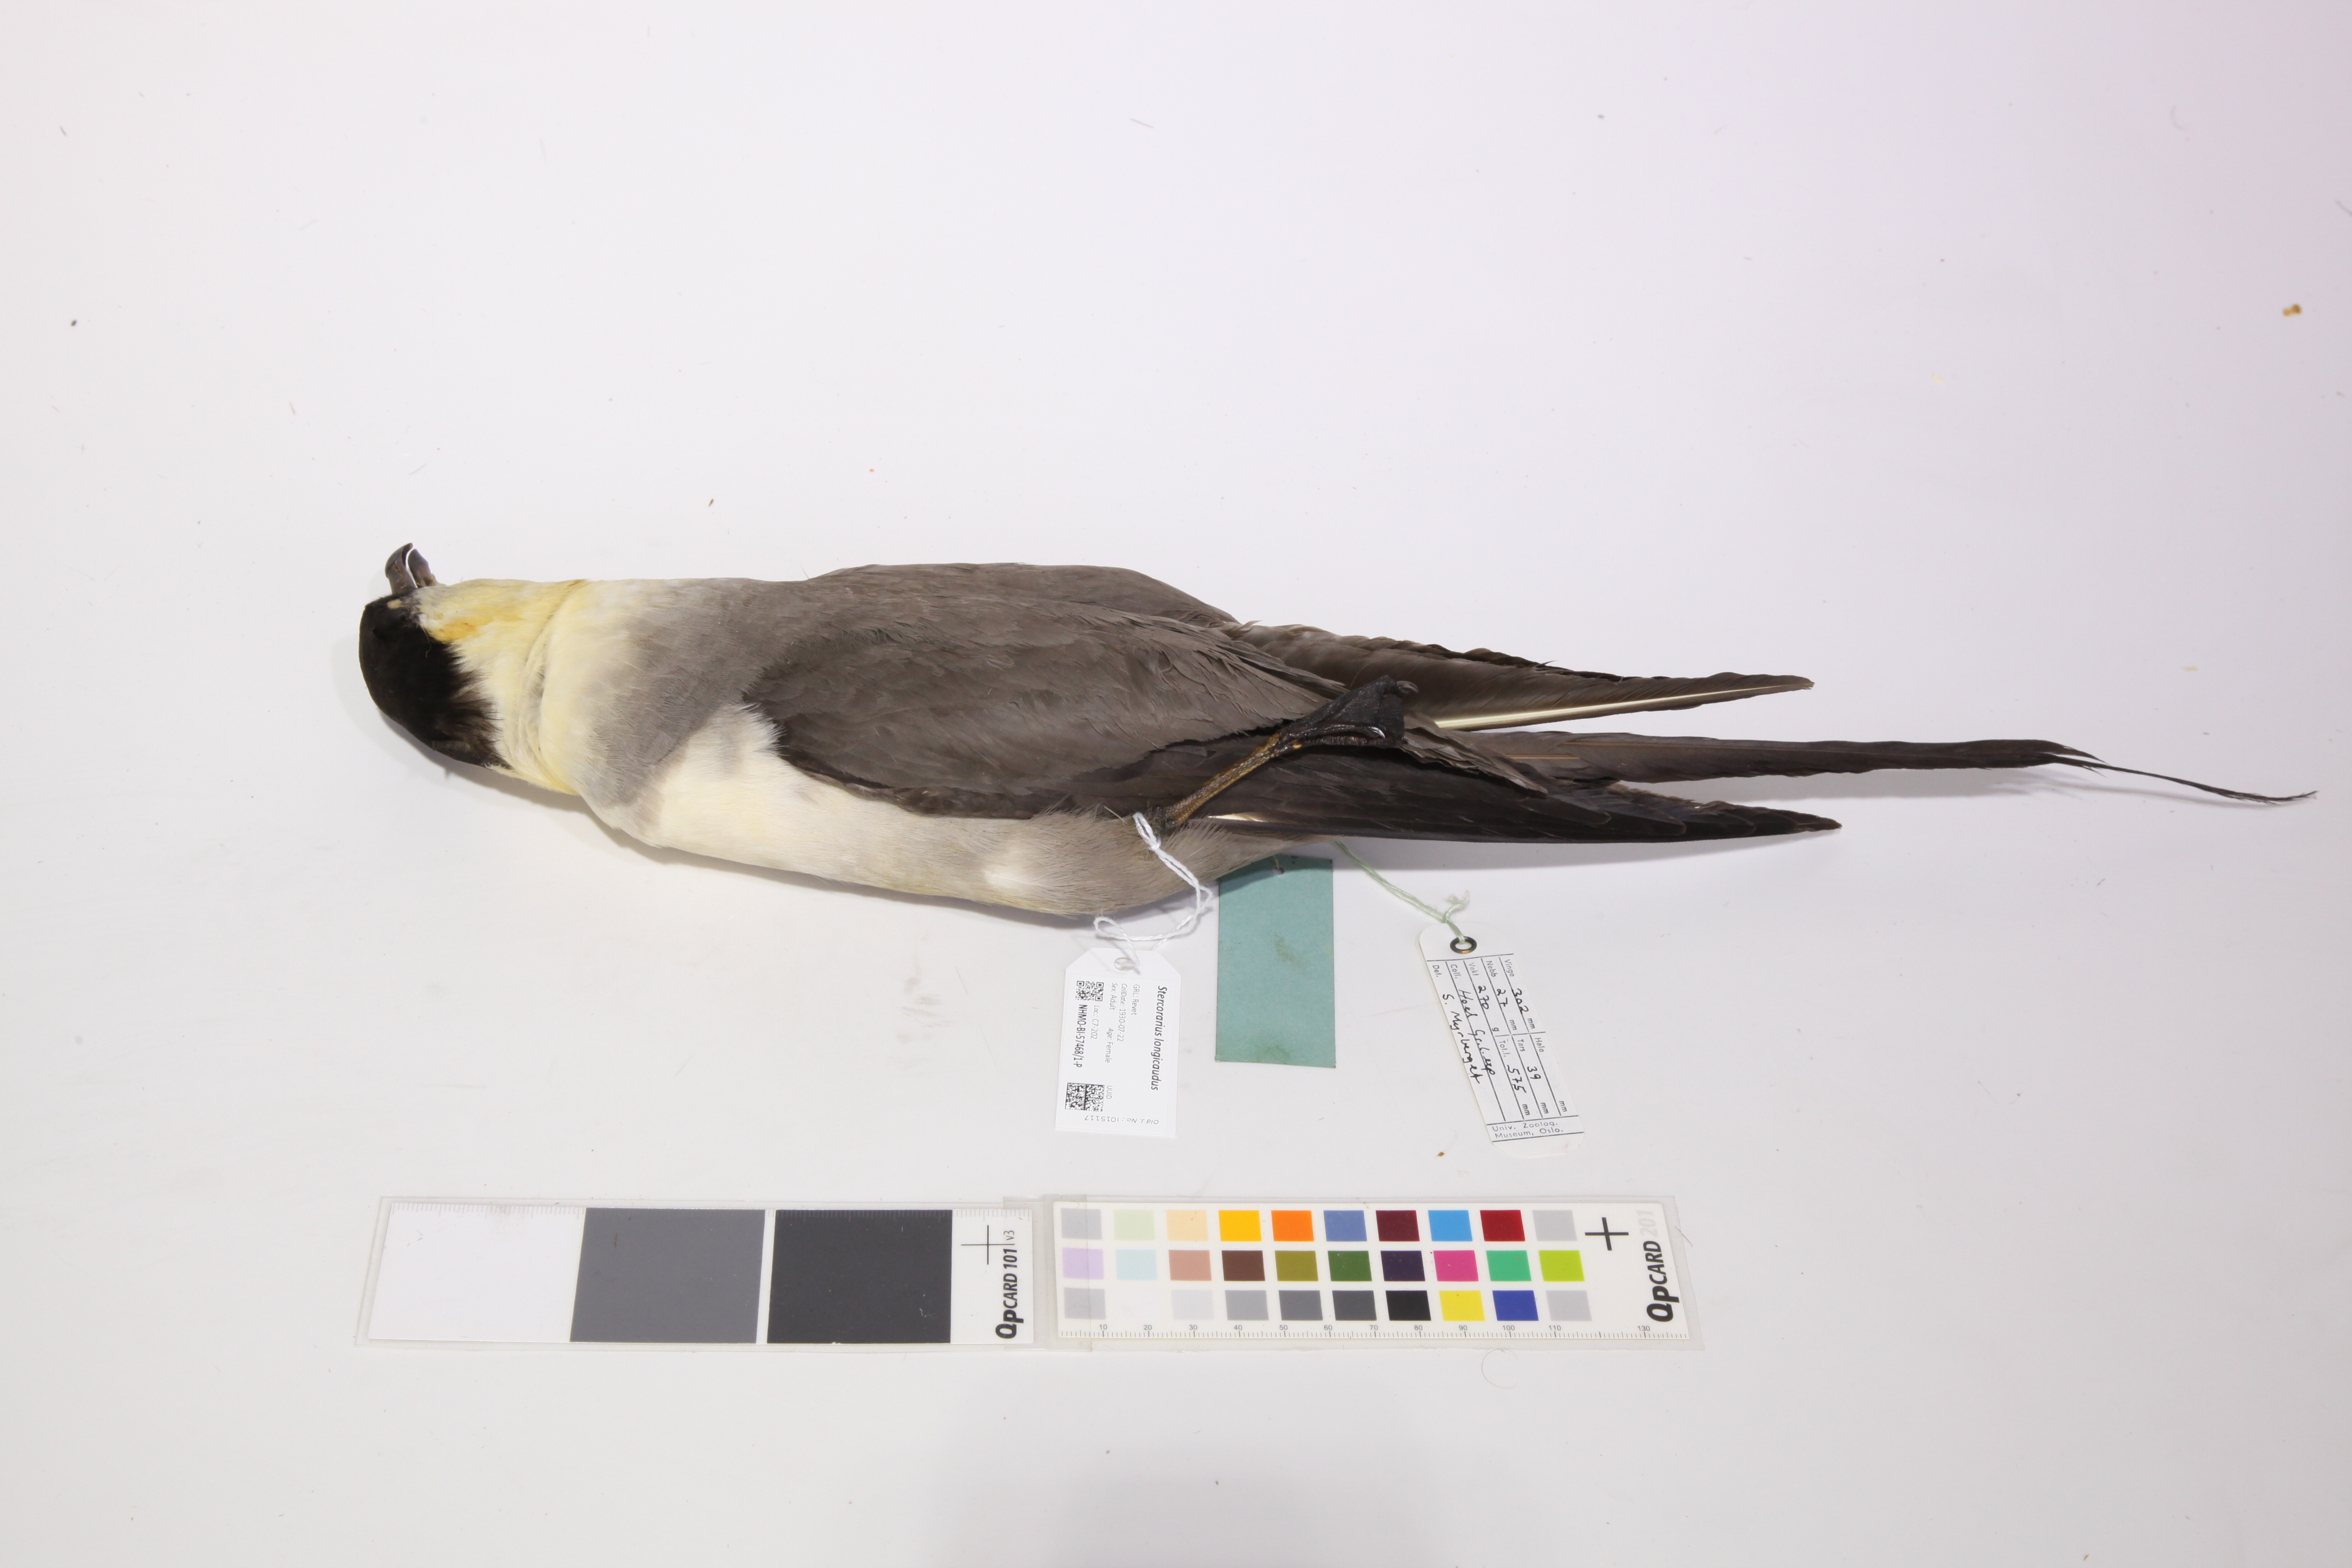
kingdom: Animalia
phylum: Chordata
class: Aves
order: Charadriiformes
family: Stercorariidae
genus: Stercorarius
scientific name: Stercorarius longicaudus
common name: Long-tailed jaeger
